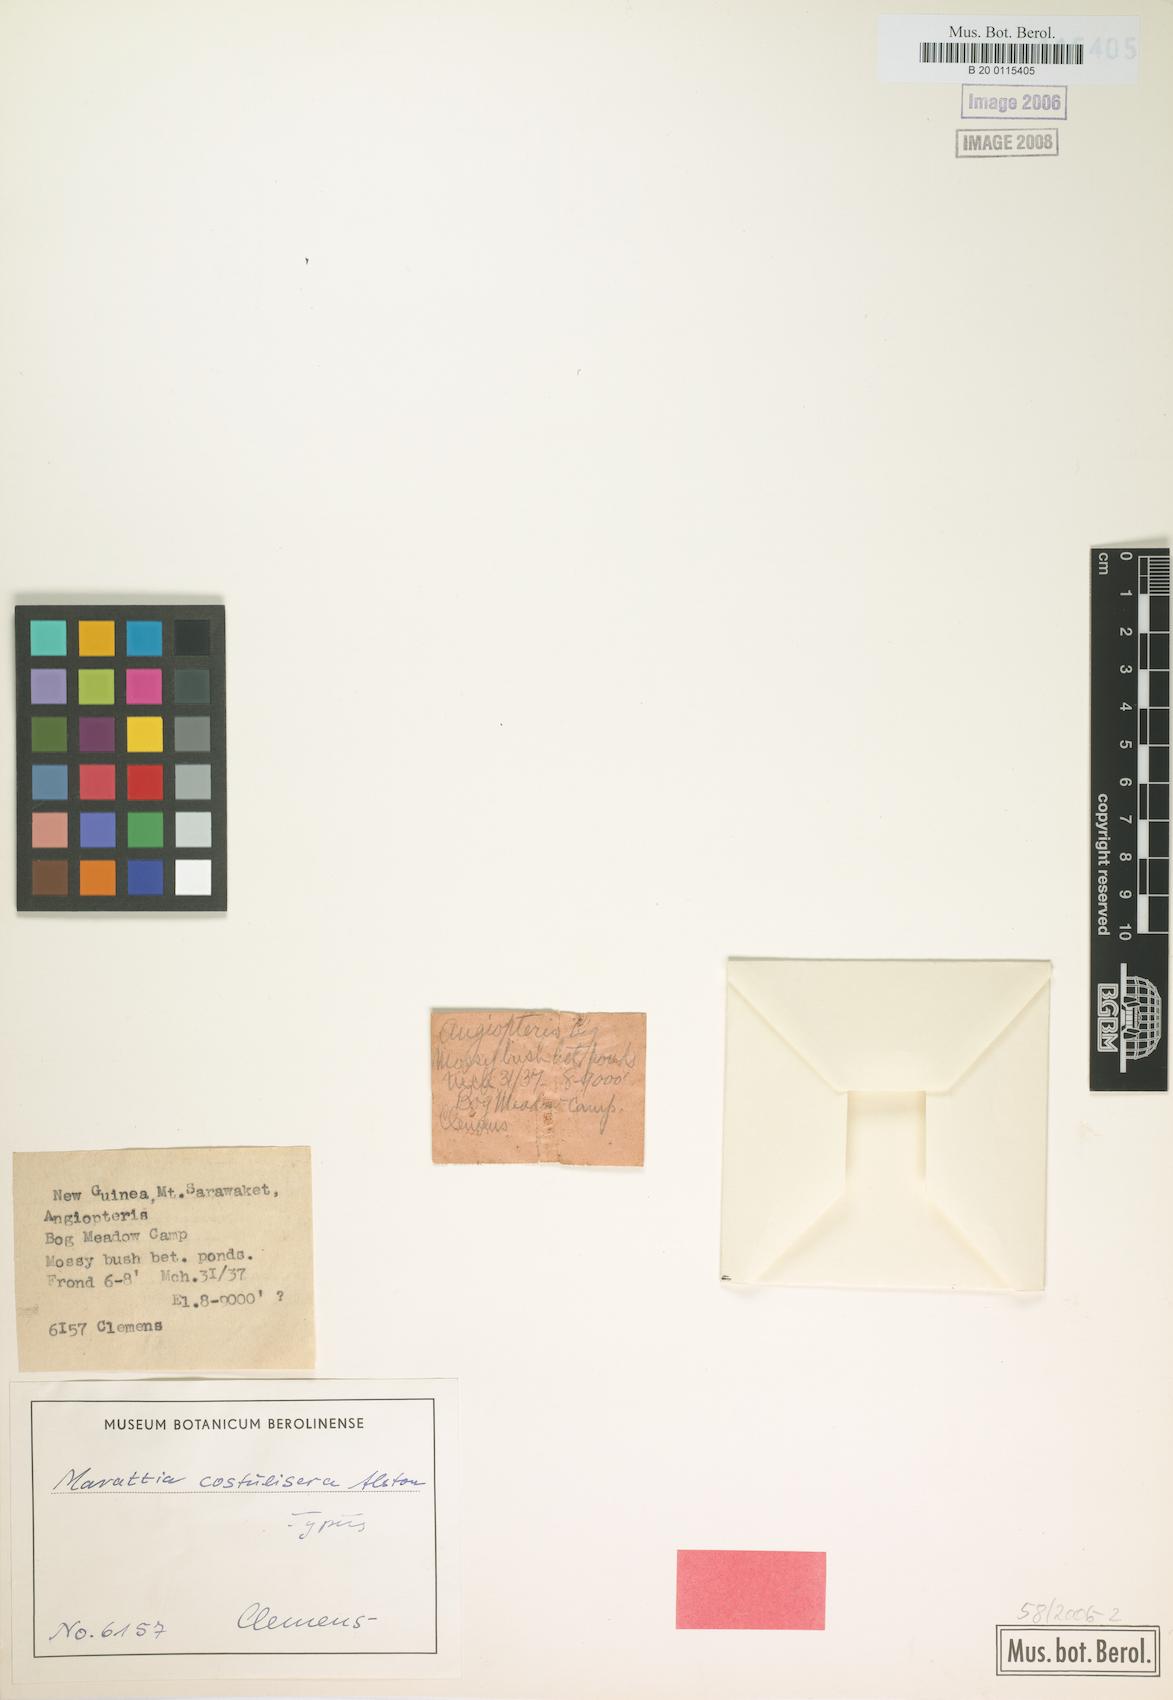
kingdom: Plantae
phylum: Tracheophyta
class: Polypodiopsida
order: Marattiales
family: Marattiaceae
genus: Ptisana
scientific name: Ptisana costulisora
